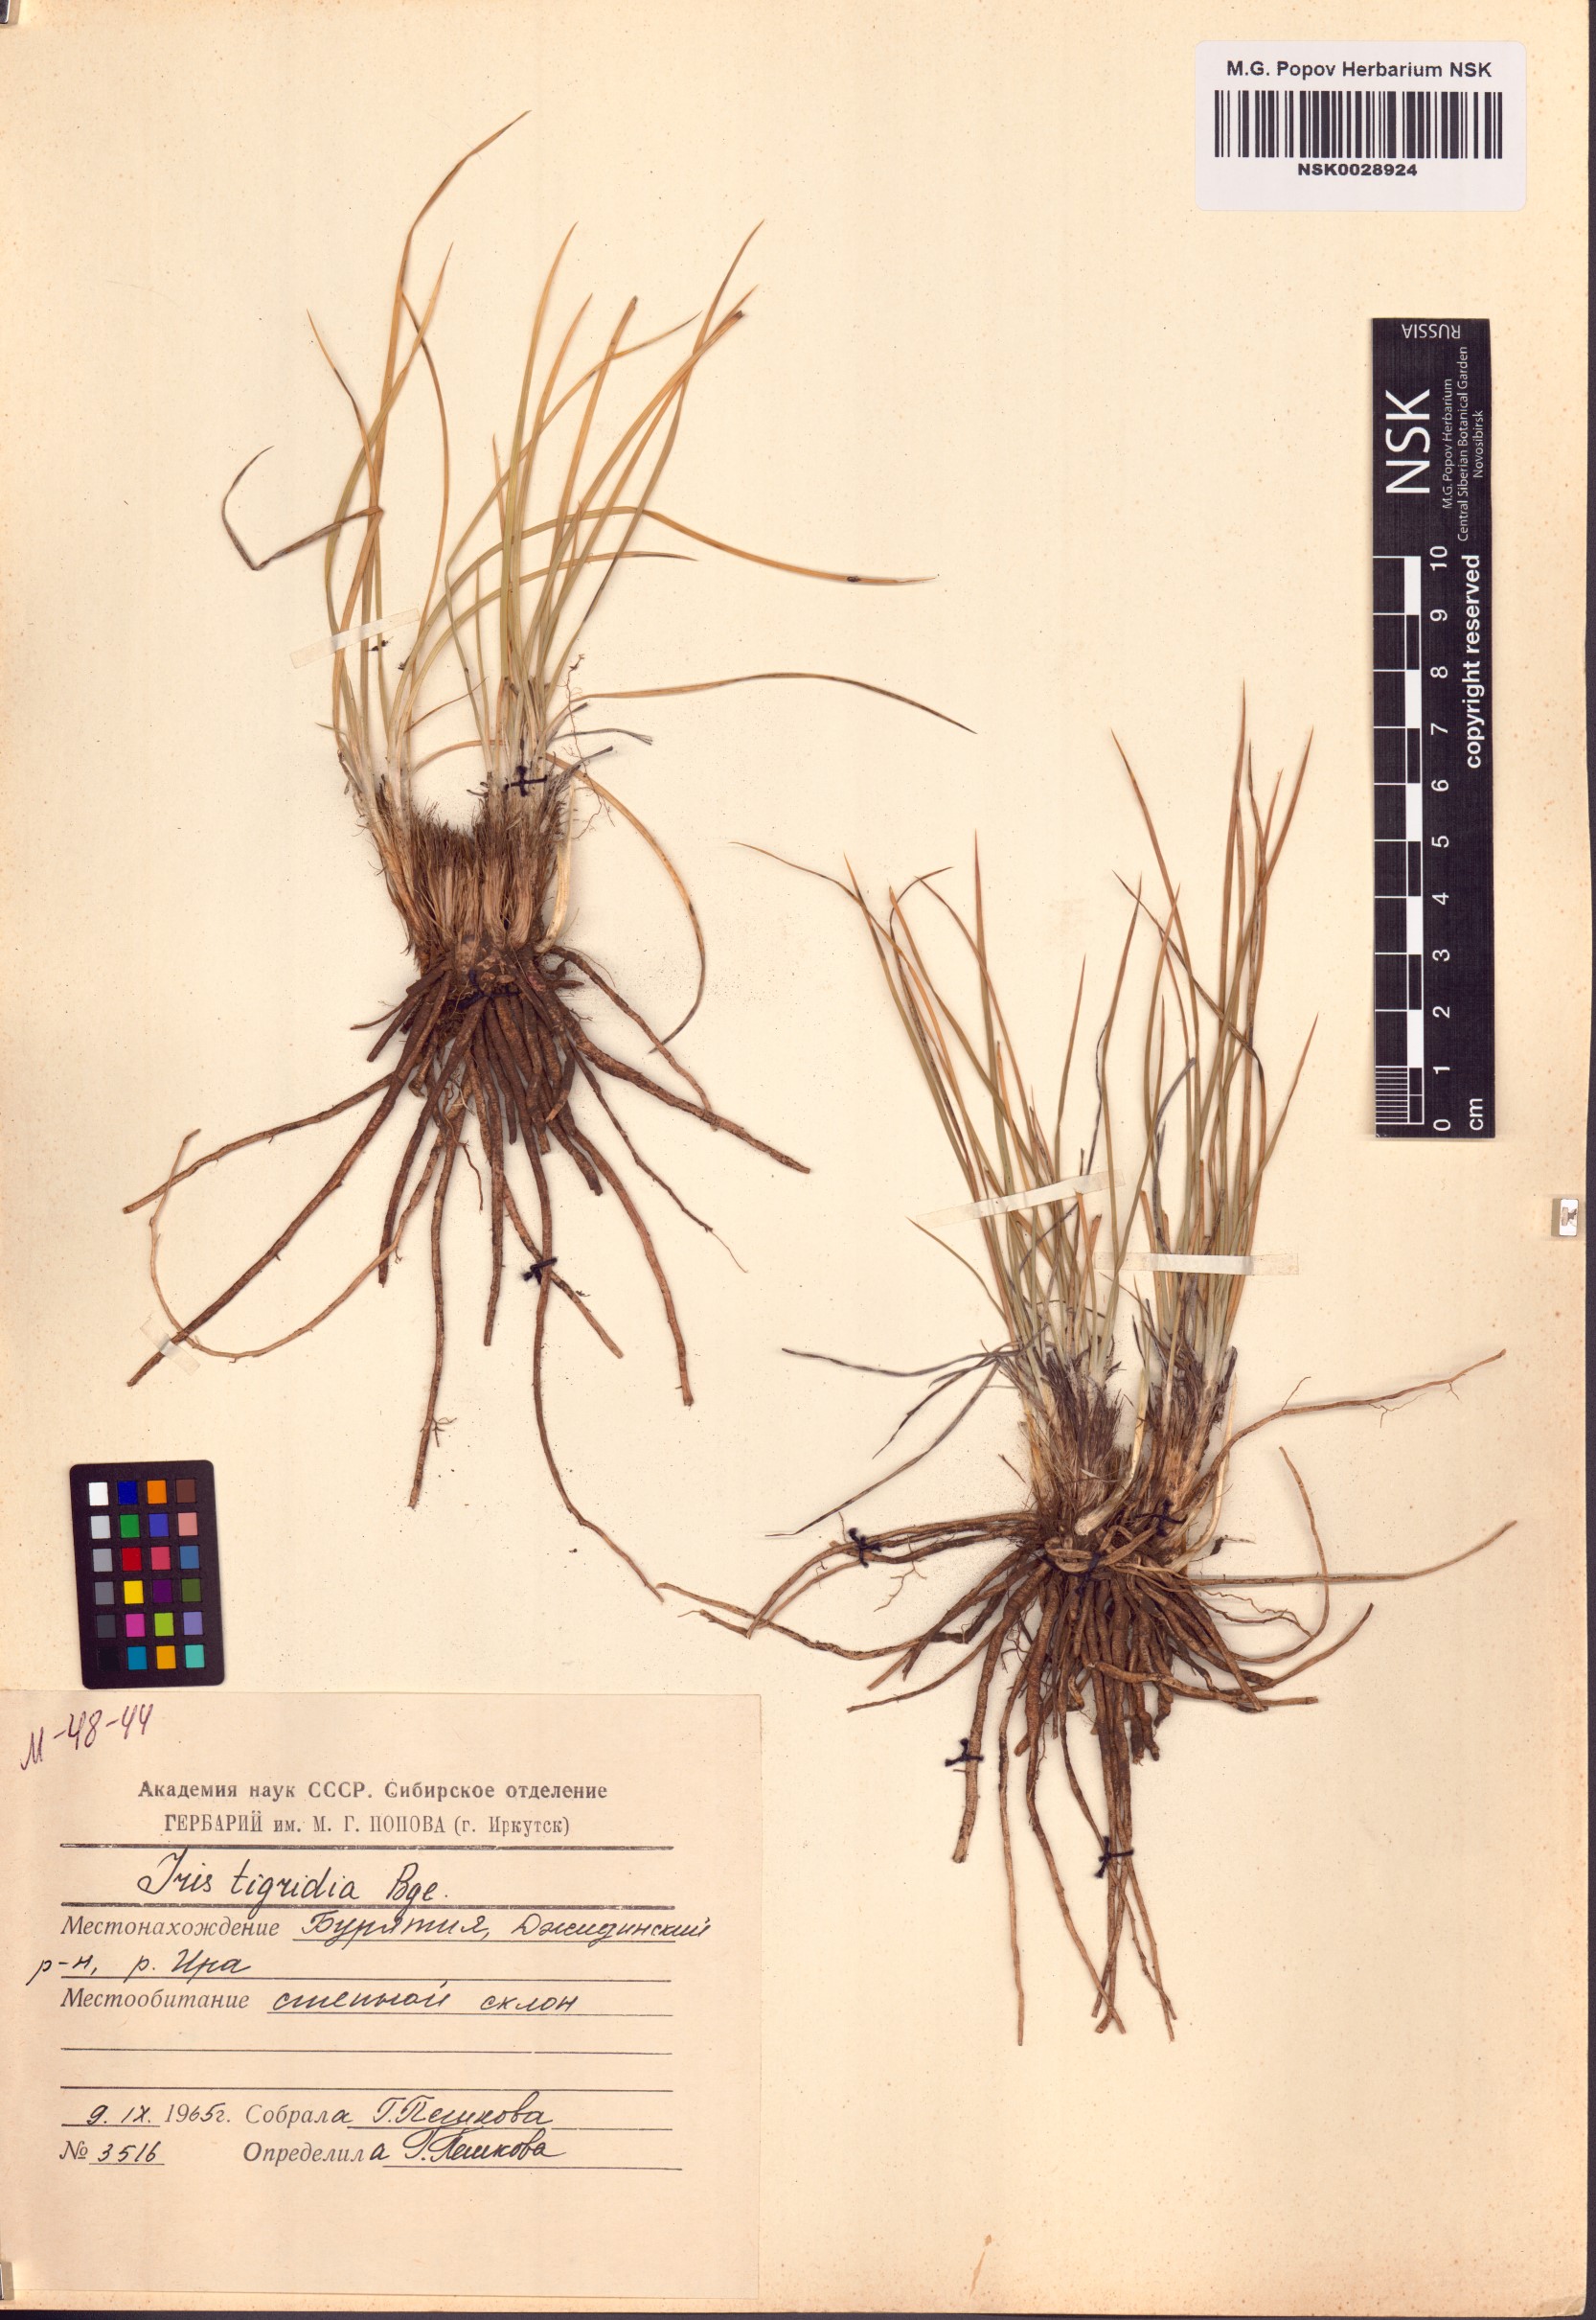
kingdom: Plantae
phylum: Tracheophyta
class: Liliopsida
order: Asparagales
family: Iridaceae
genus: Iris
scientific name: Iris tigridia
